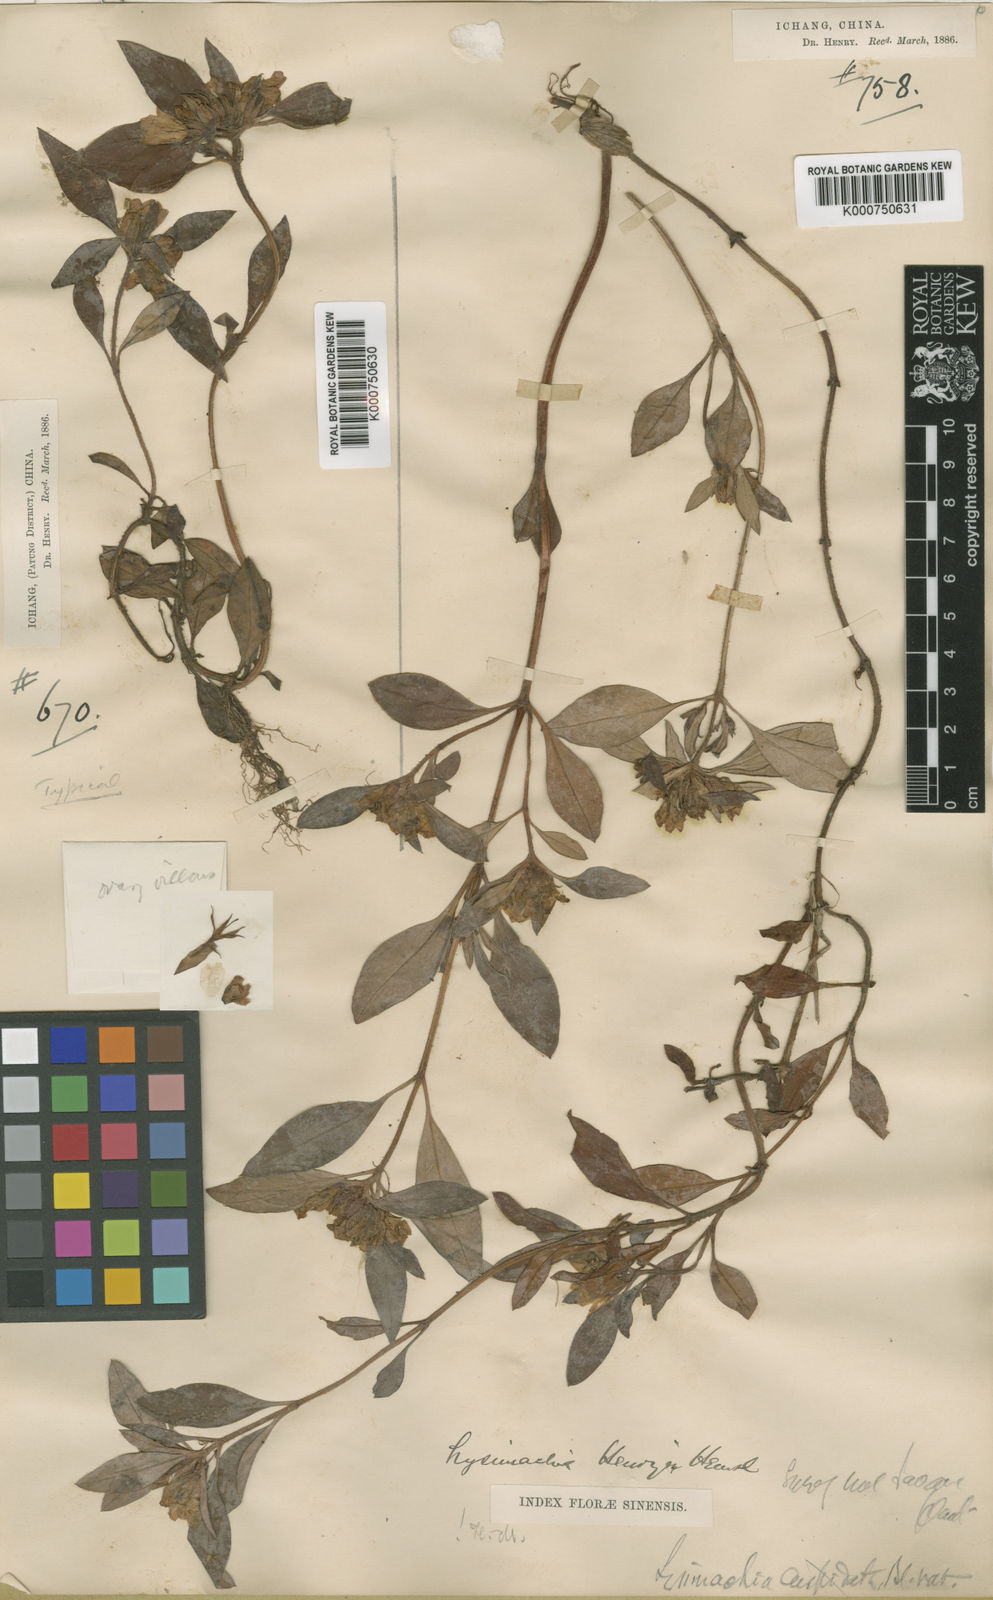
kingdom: Plantae
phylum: Tracheophyta
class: Magnoliopsida
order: Ericales
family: Primulaceae
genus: Lysimachia
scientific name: Lysimachia henryi
